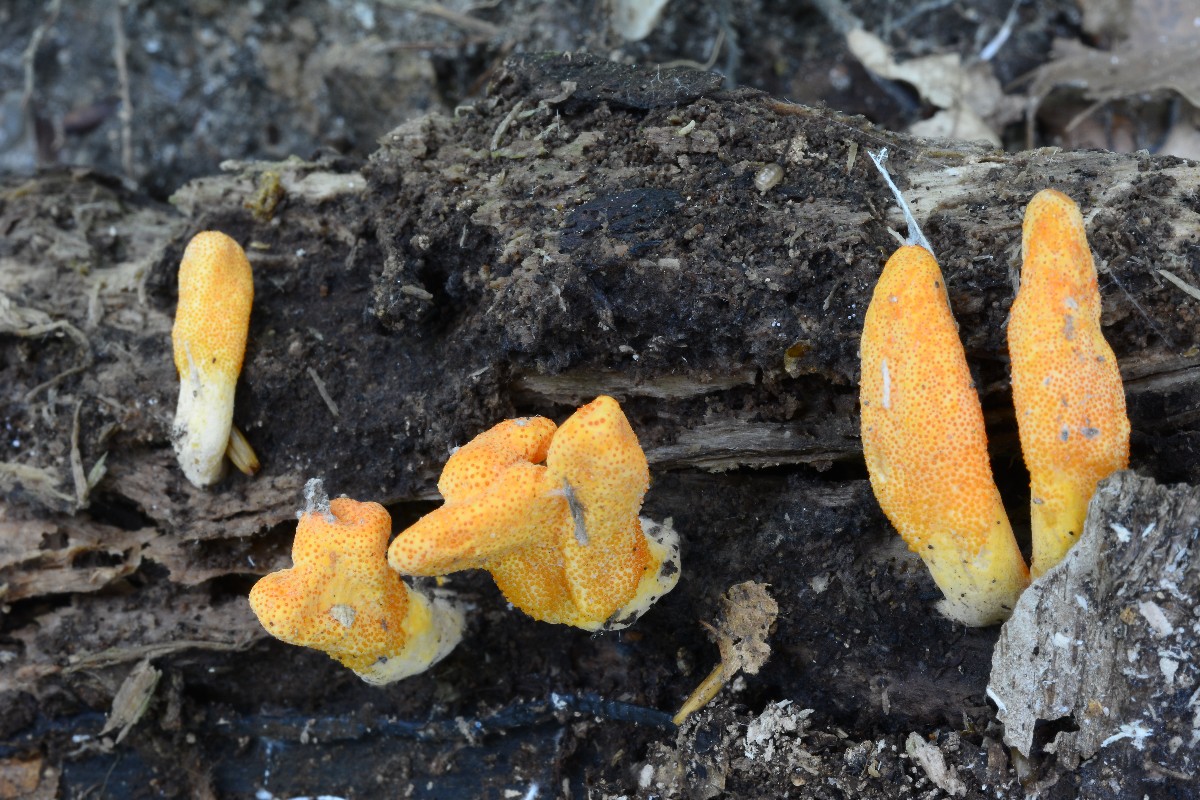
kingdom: Fungi
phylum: Ascomycota
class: Sordariomycetes
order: Hypocreales
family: Cordycipitaceae
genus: Cordyceps
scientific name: Cordyceps militaris
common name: puppe-snyltekølle
